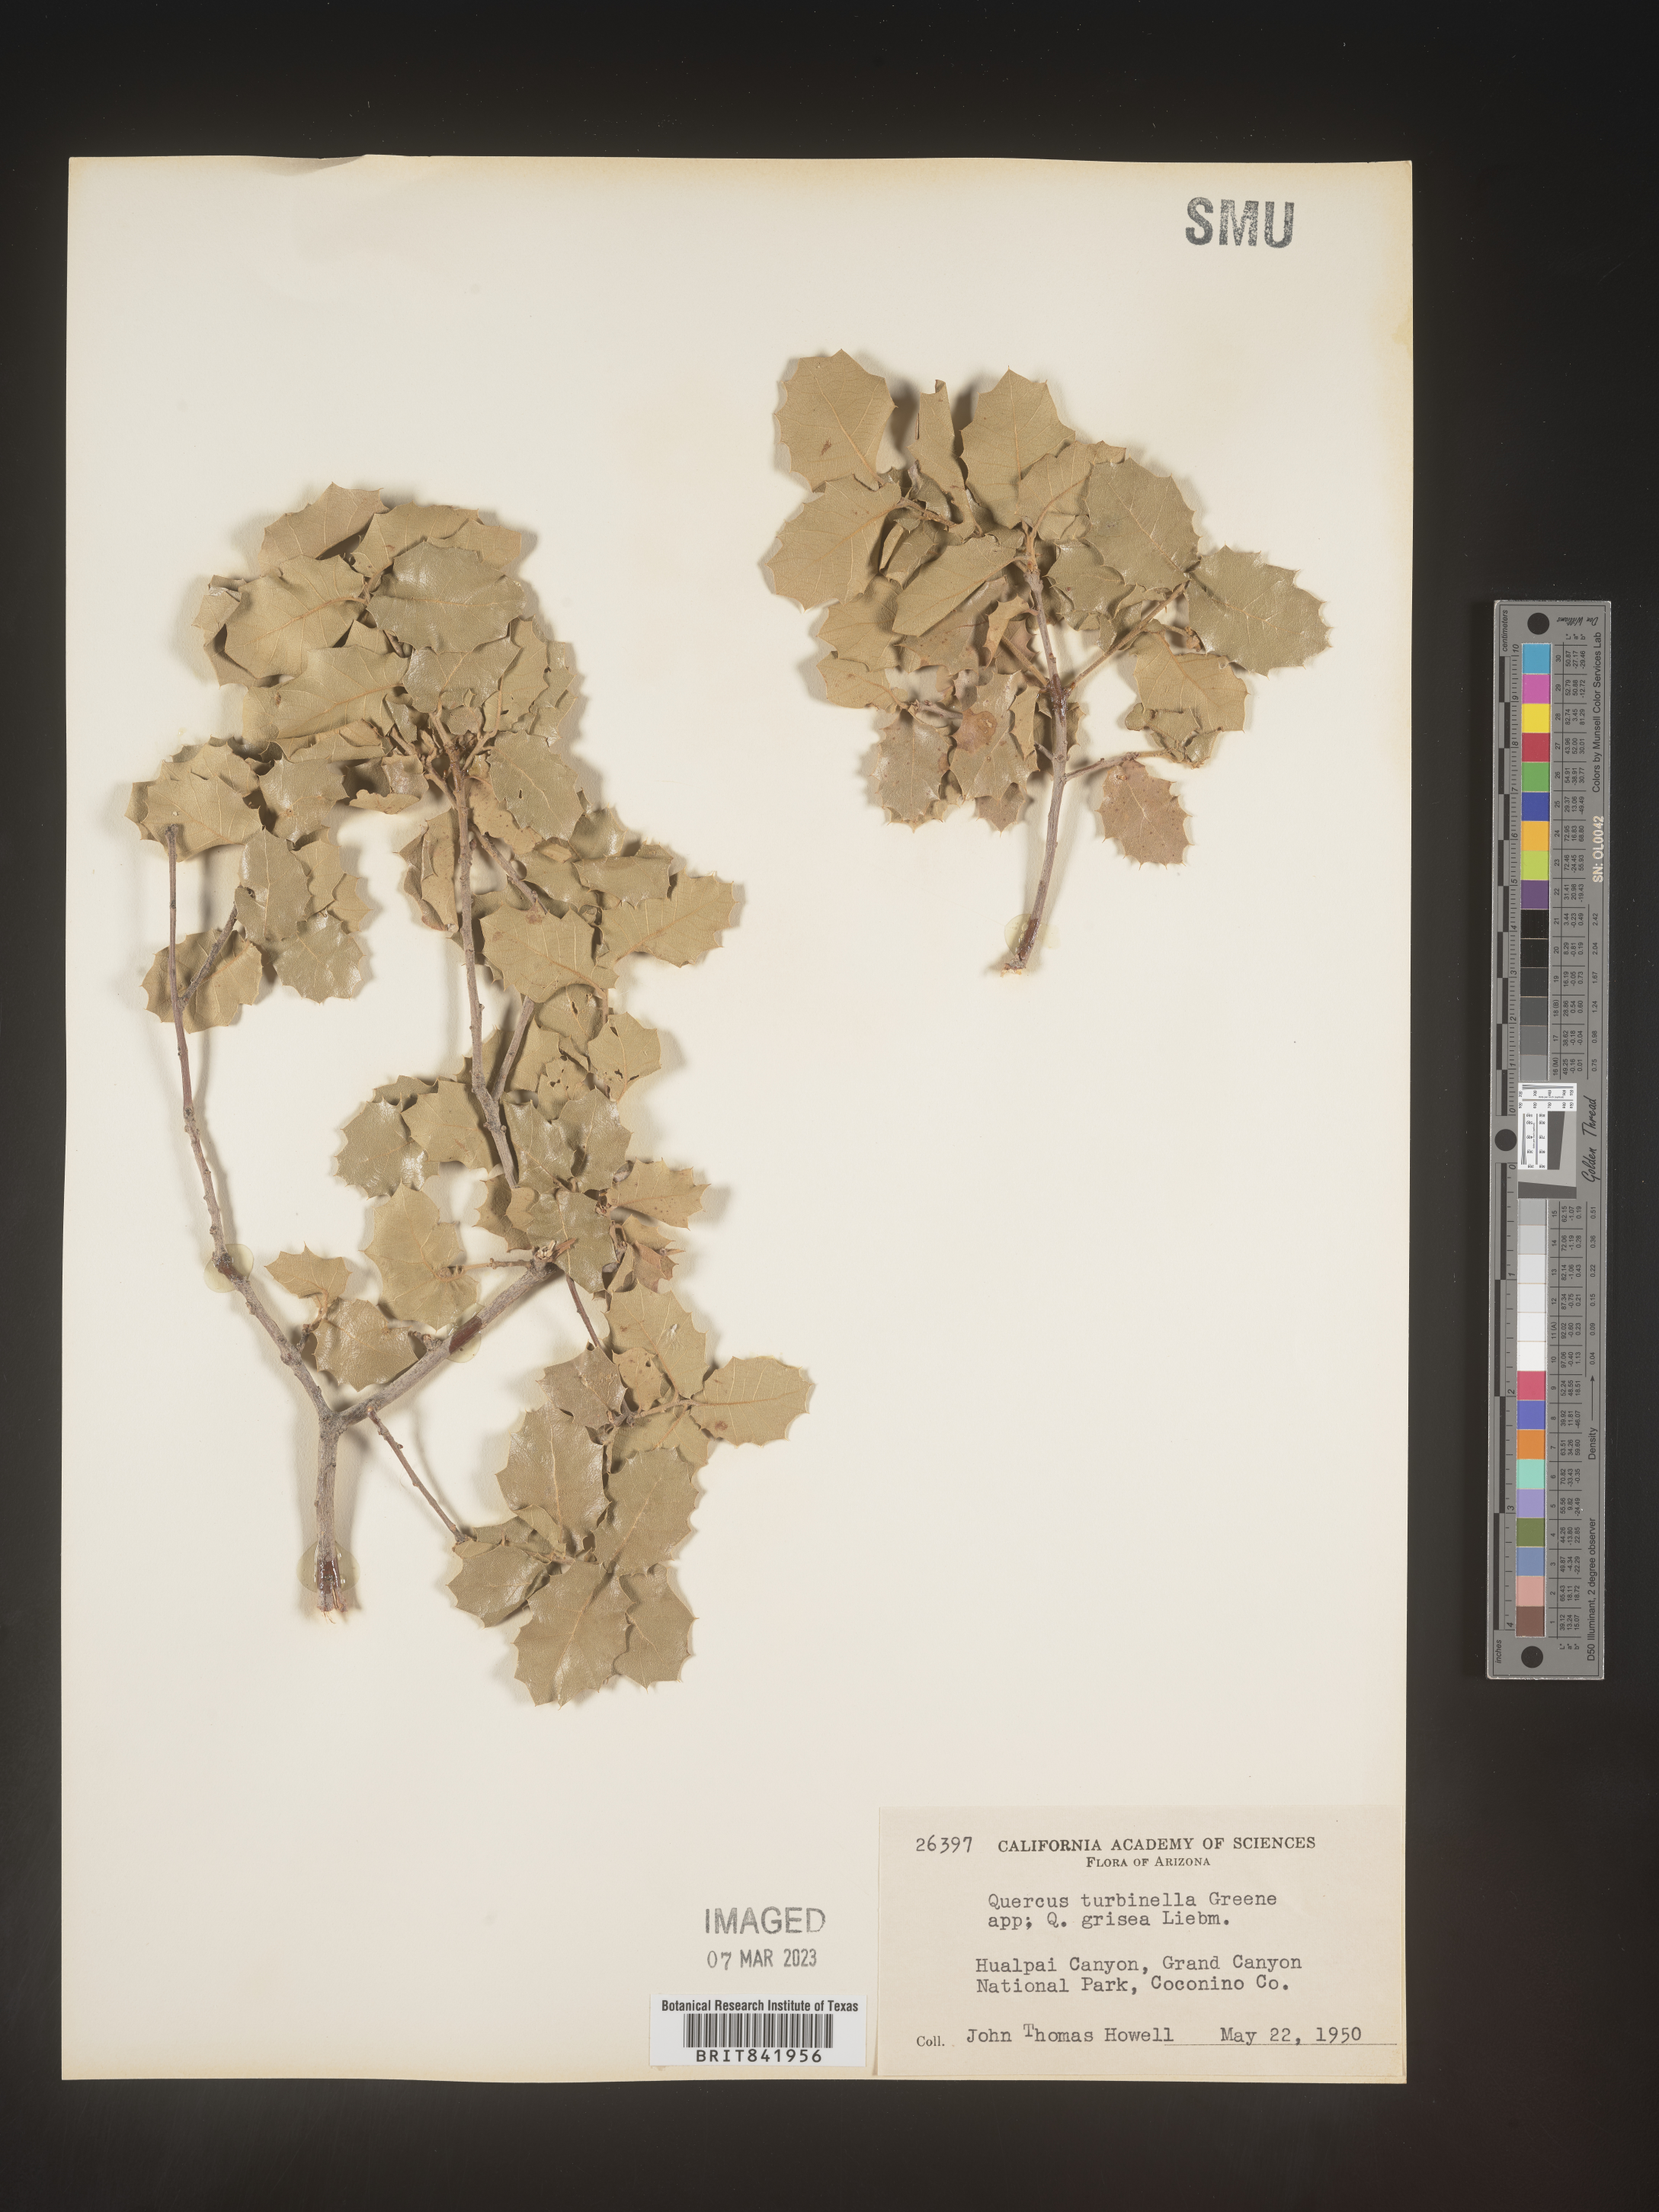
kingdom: Plantae
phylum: Tracheophyta
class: Magnoliopsida
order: Fagales
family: Fagaceae
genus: Quercus
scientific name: Quercus turbinella
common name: Sonoran scrub oak
